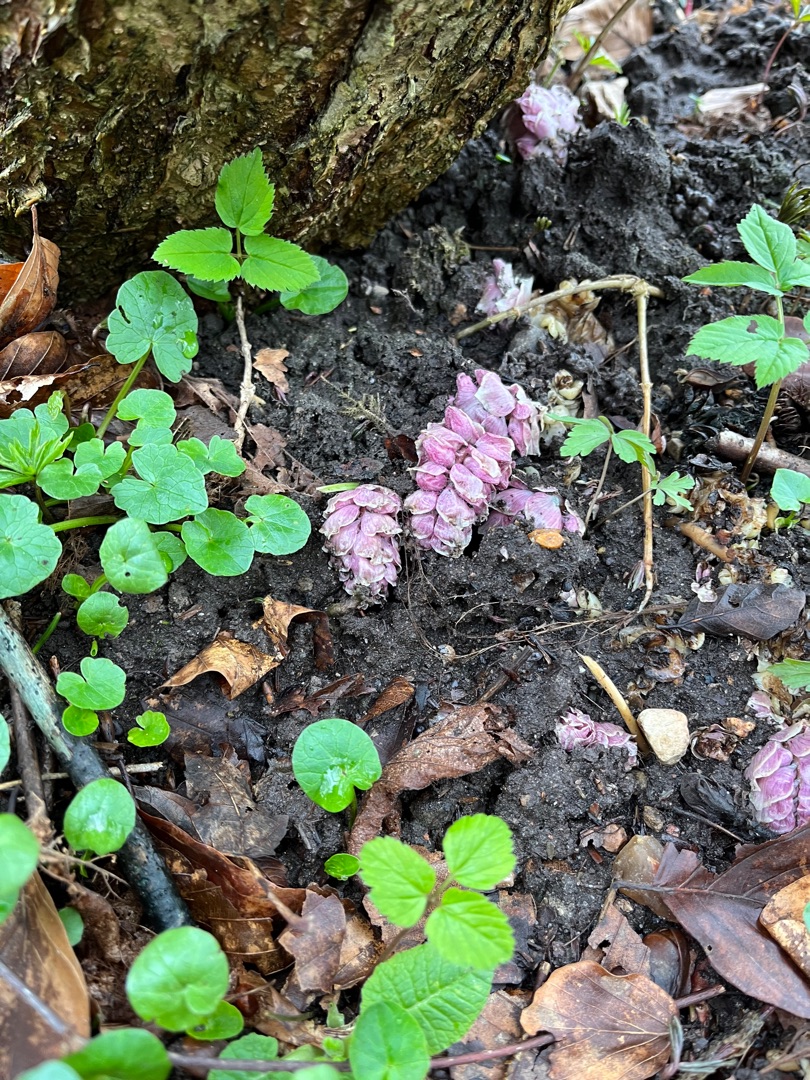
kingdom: Plantae
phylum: Tracheophyta
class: Magnoliopsida
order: Lamiales
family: Orobanchaceae
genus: Lathraea
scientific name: Lathraea squamaria
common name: Skælrod
